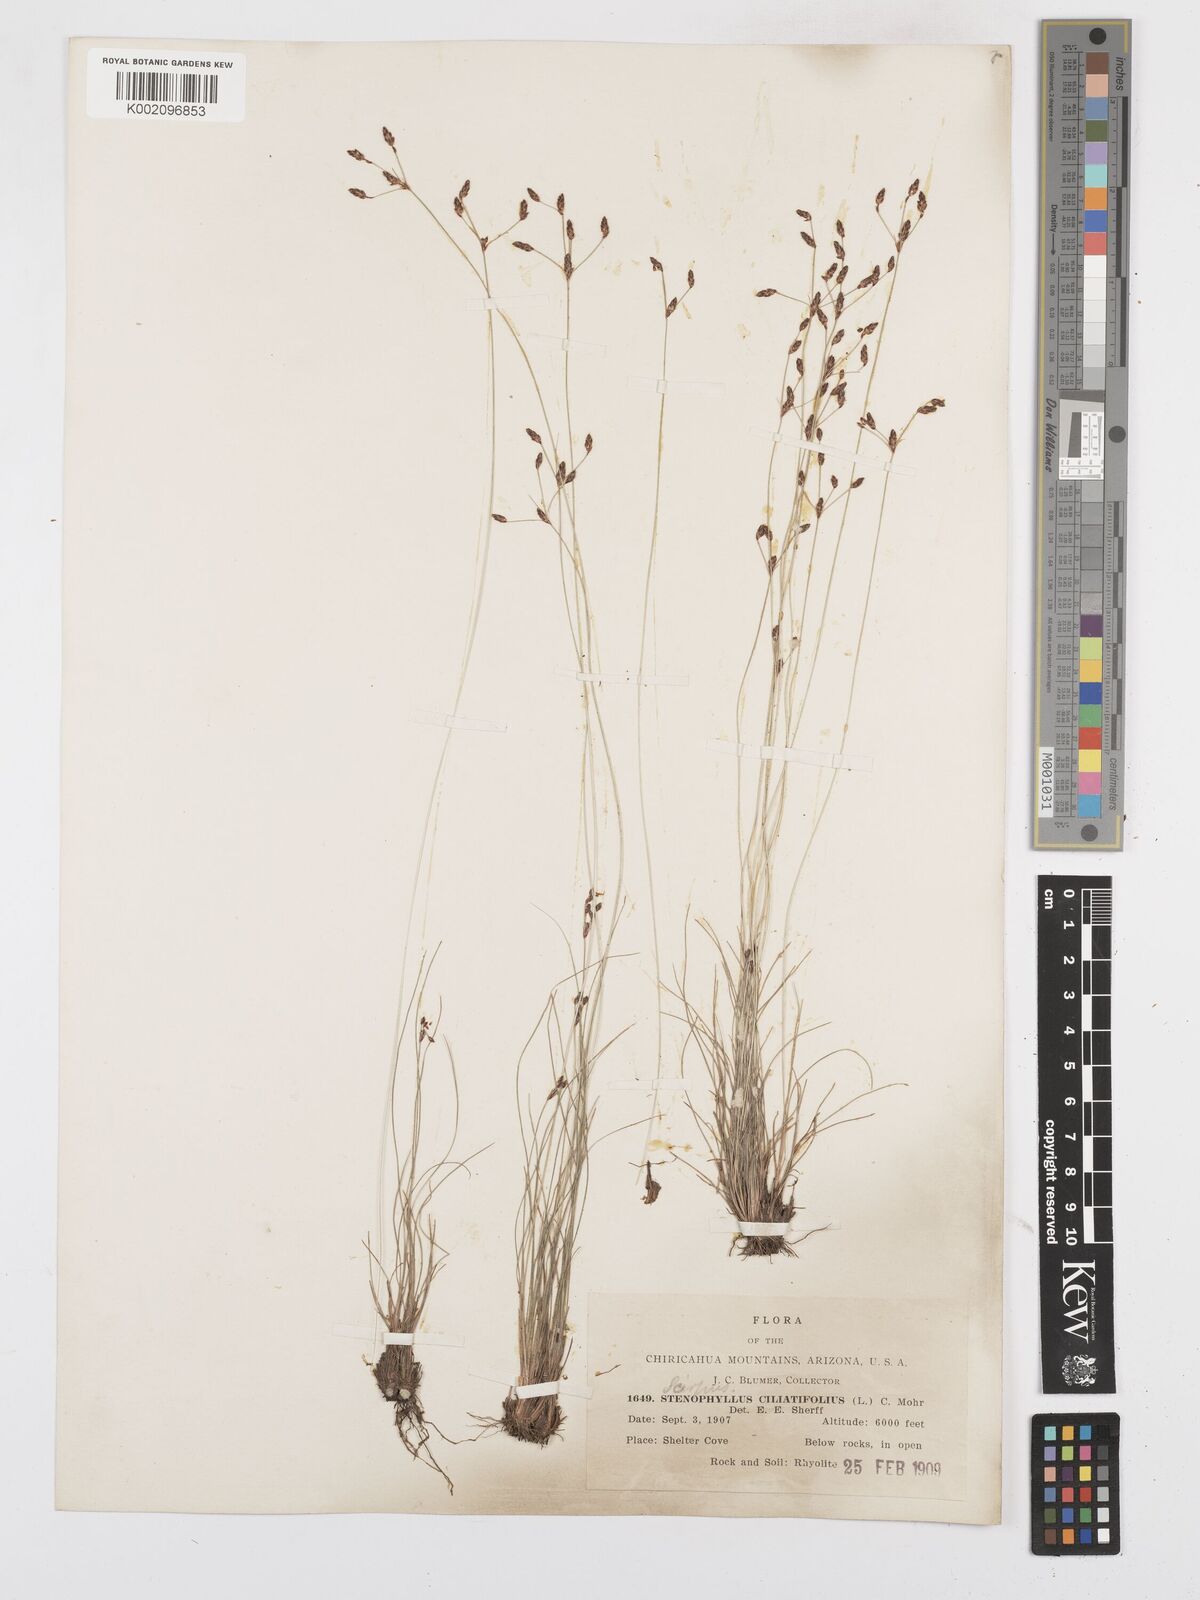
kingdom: Plantae
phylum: Tracheophyta
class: Liliopsida
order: Poales
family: Cyperaceae
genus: Bulbostylis
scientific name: Bulbostylis capillaris
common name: Densetuft hairsedge
